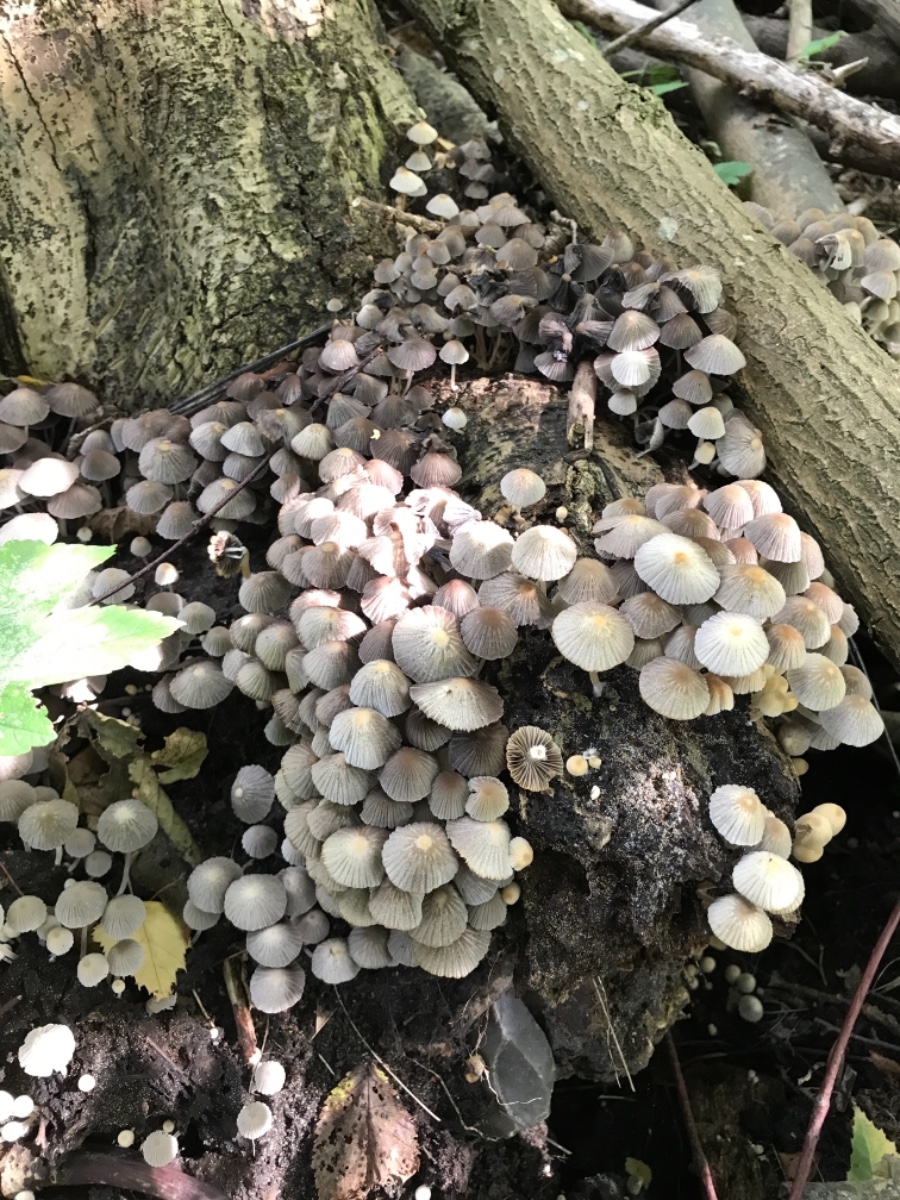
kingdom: Fungi
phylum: Basidiomycota
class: Agaricomycetes
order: Agaricales
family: Psathyrellaceae
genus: Coprinellus
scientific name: Coprinellus disseminatus
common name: bredsået blækhat
